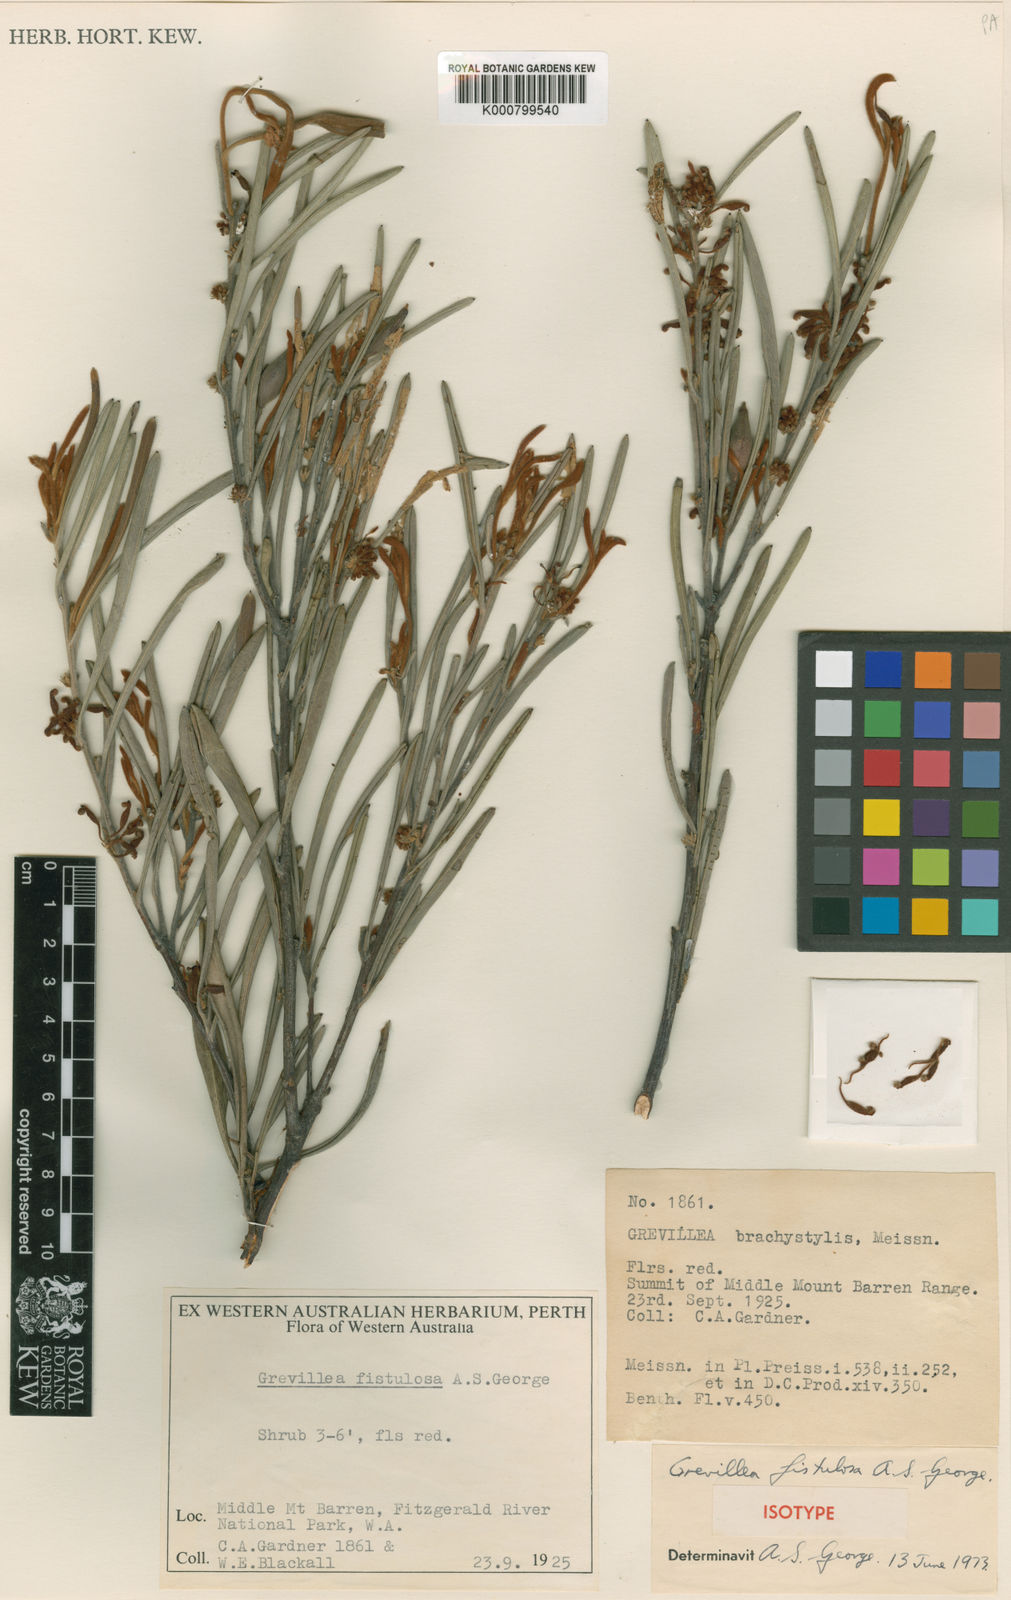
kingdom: Plantae
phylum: Tracheophyta
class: Magnoliopsida
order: Proteales
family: Proteaceae
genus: Grevillea
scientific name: Grevillea fistulosa
